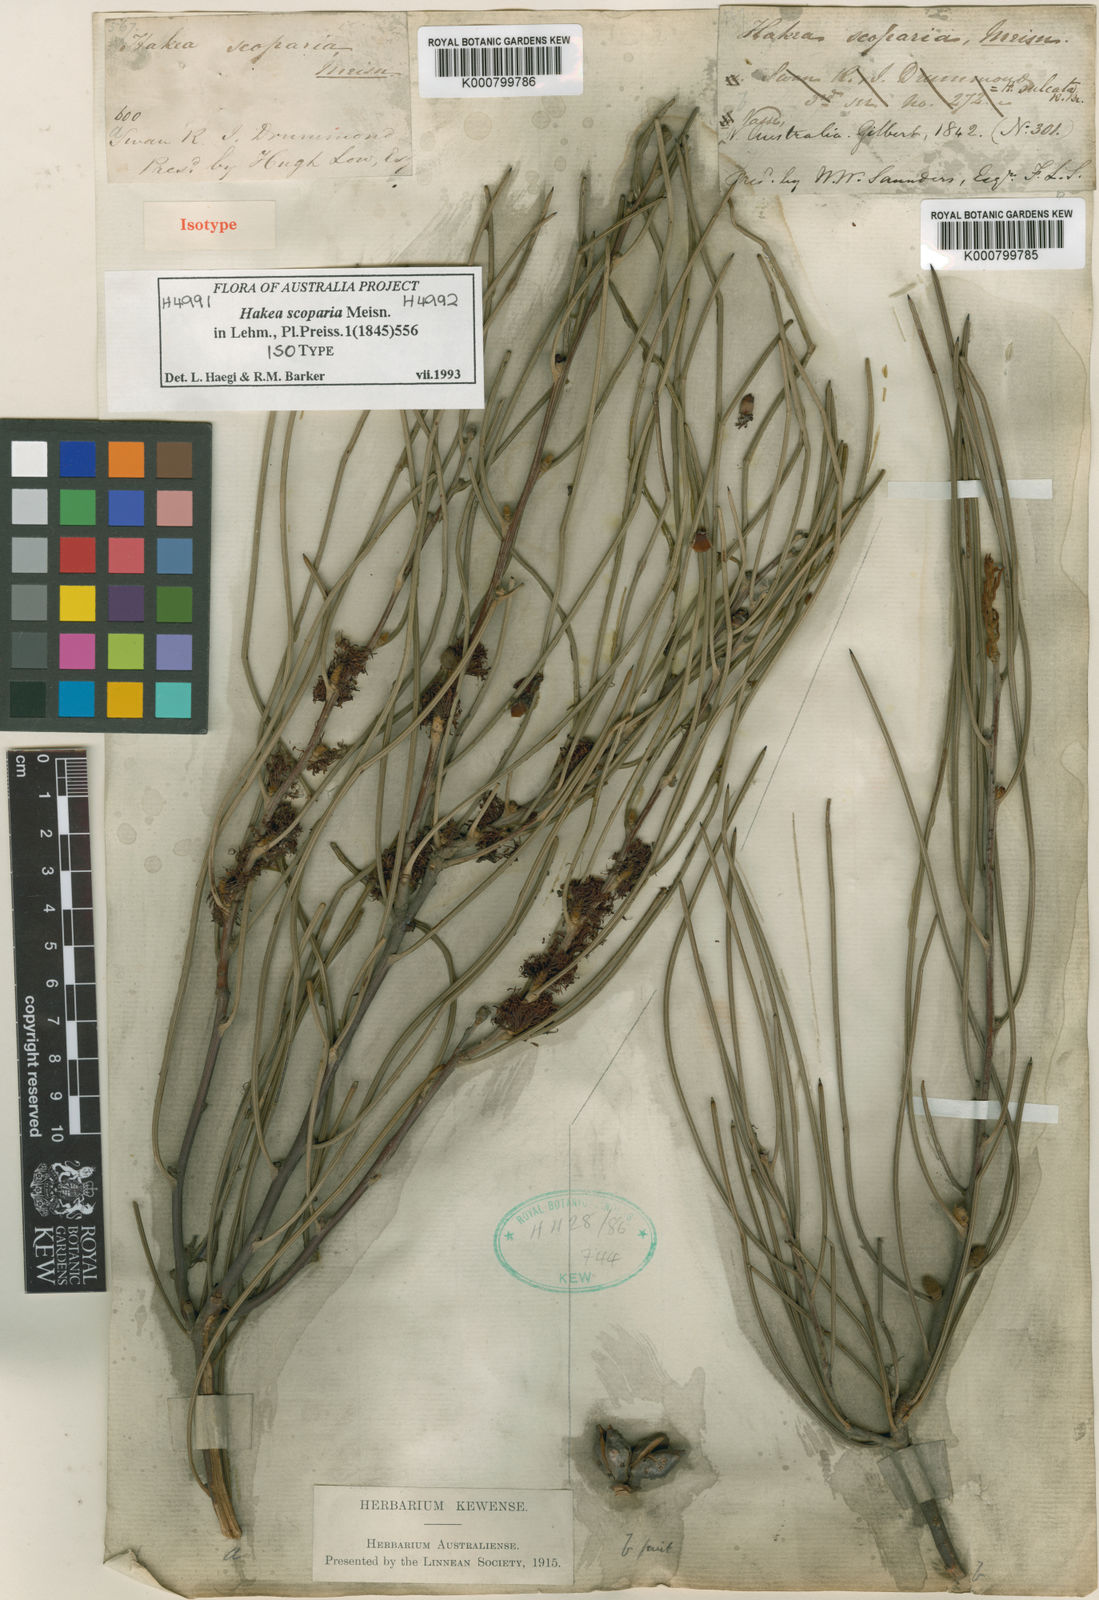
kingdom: Plantae
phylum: Tracheophyta
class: Magnoliopsida
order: Proteales
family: Proteaceae
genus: Hakea
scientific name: Hakea scoparia
